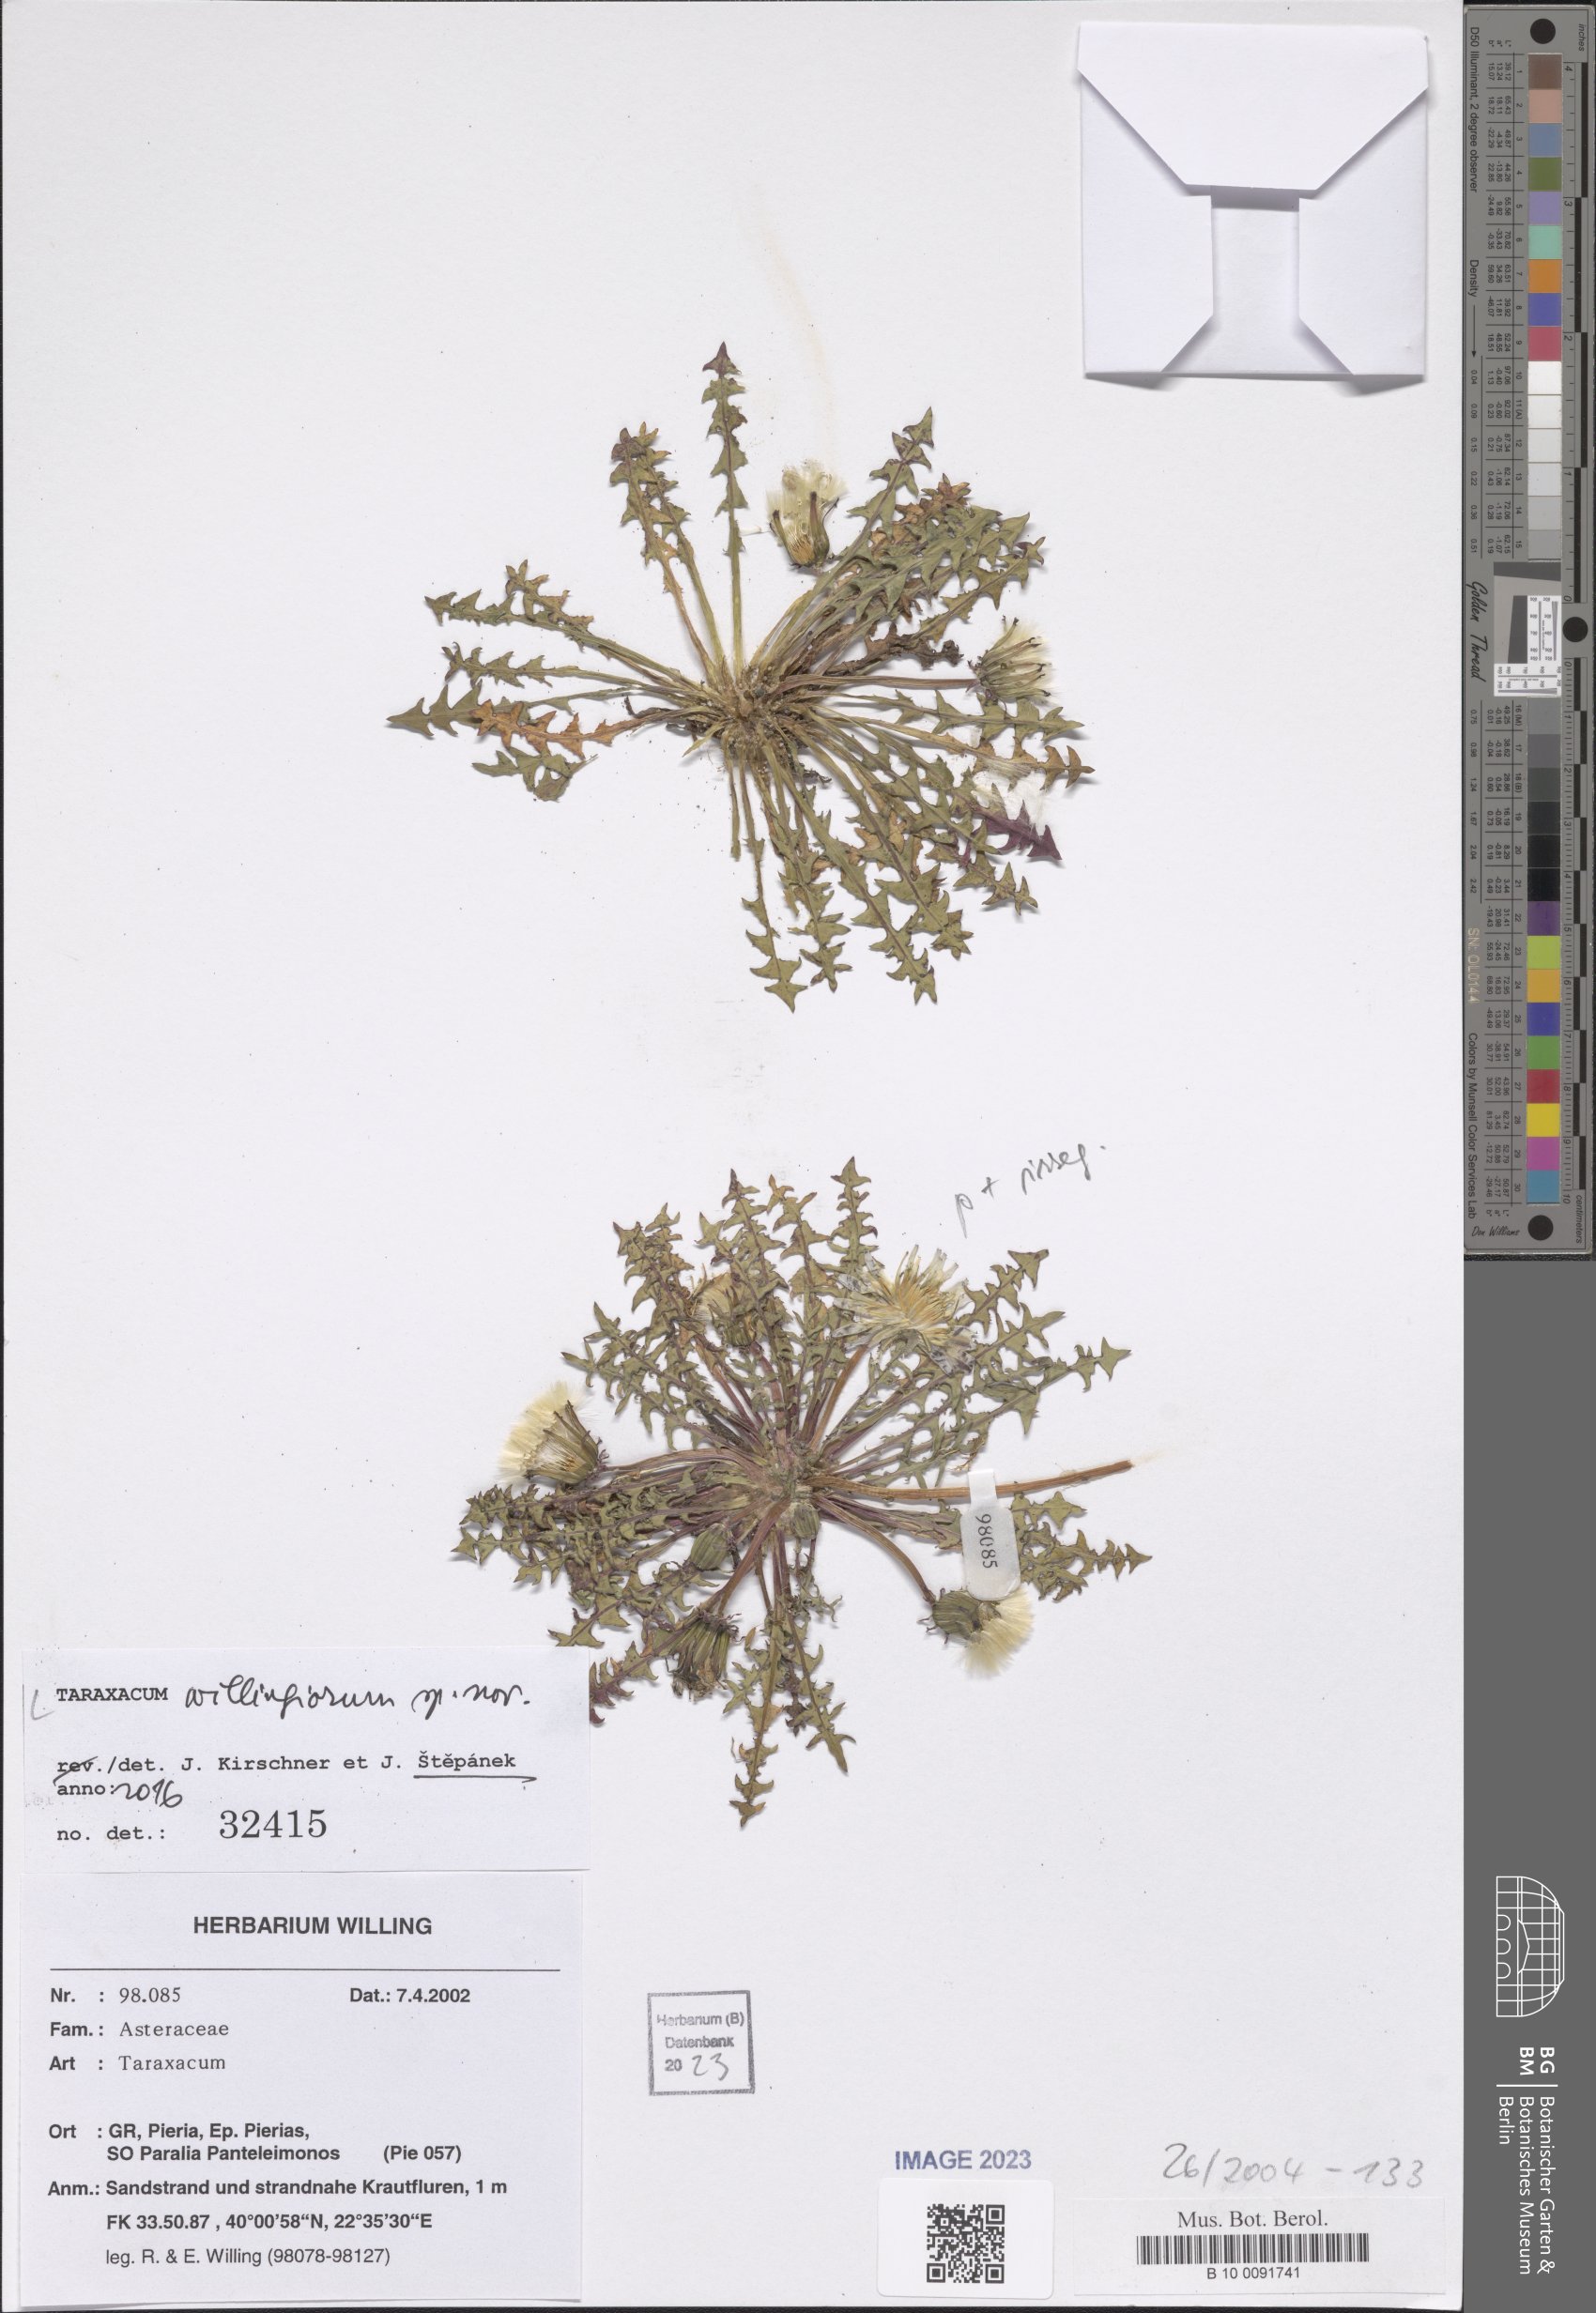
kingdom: Plantae
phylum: Tracheophyta
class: Magnoliopsida
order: Asterales
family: Asteraceae
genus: Taraxacum
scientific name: Taraxacum
